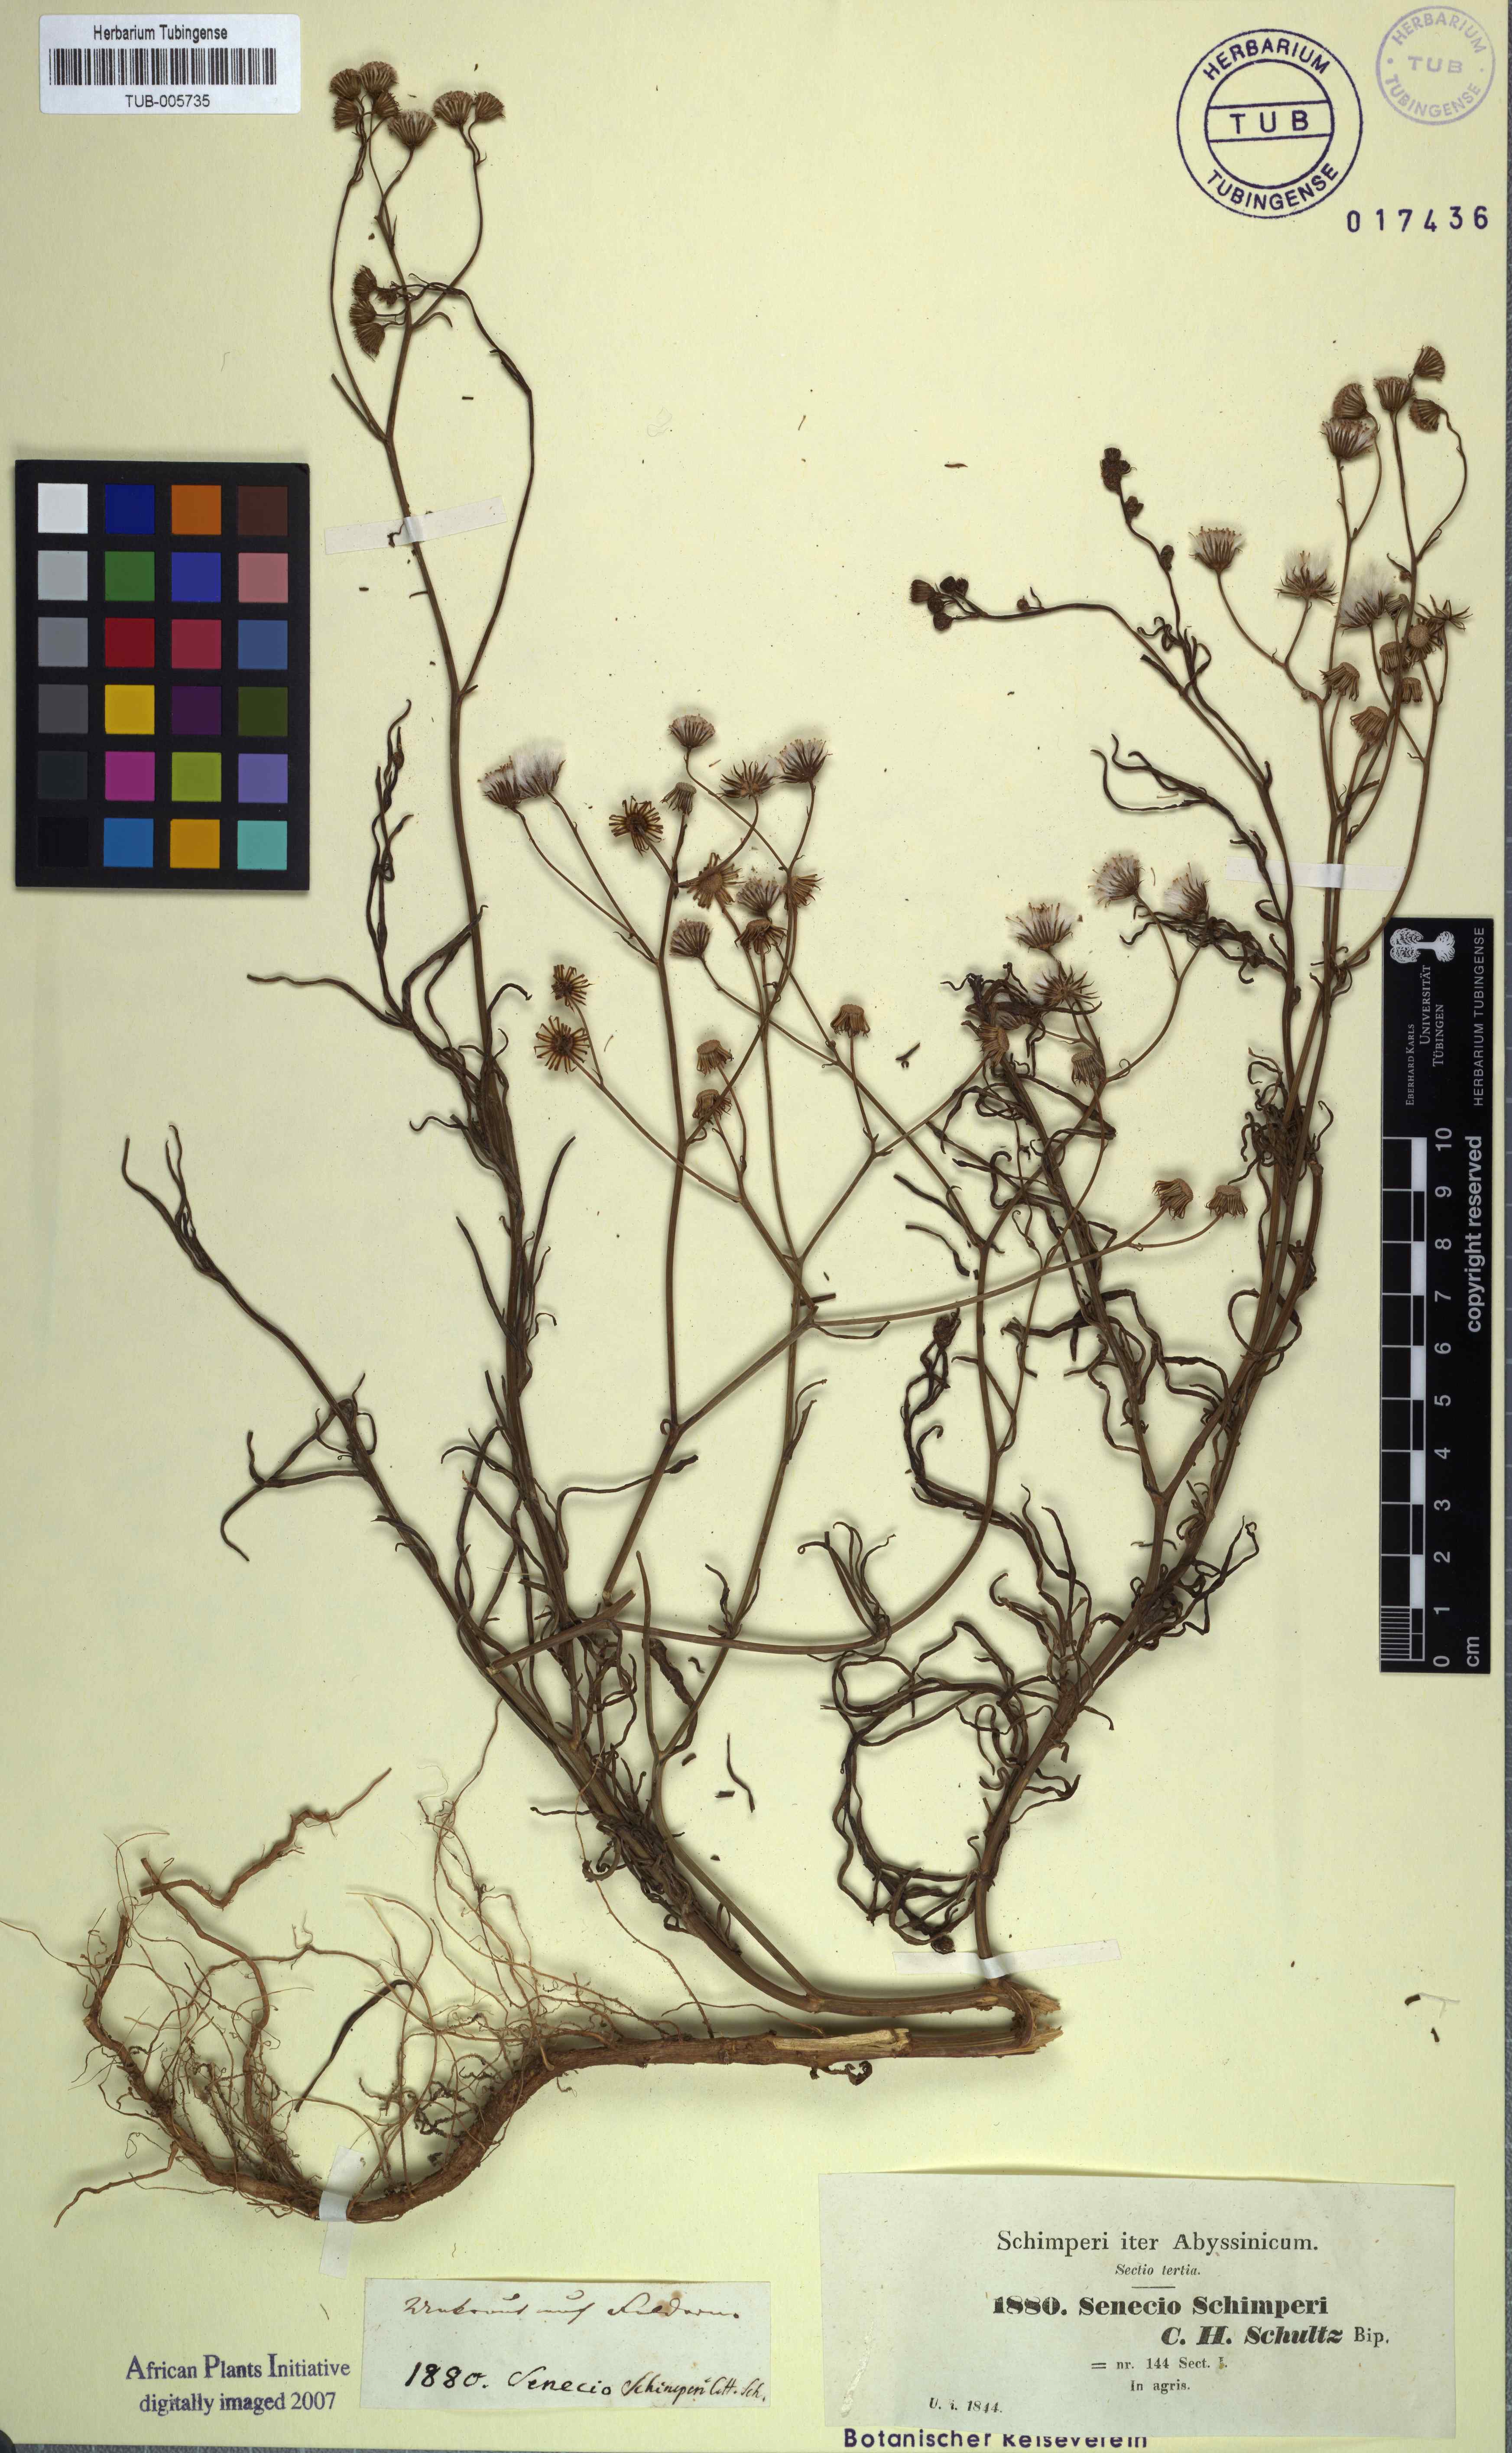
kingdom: Plantae
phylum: Tracheophyta
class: Magnoliopsida
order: Asterales
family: Asteraceae
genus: Senecio
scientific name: Senecio schimperi
